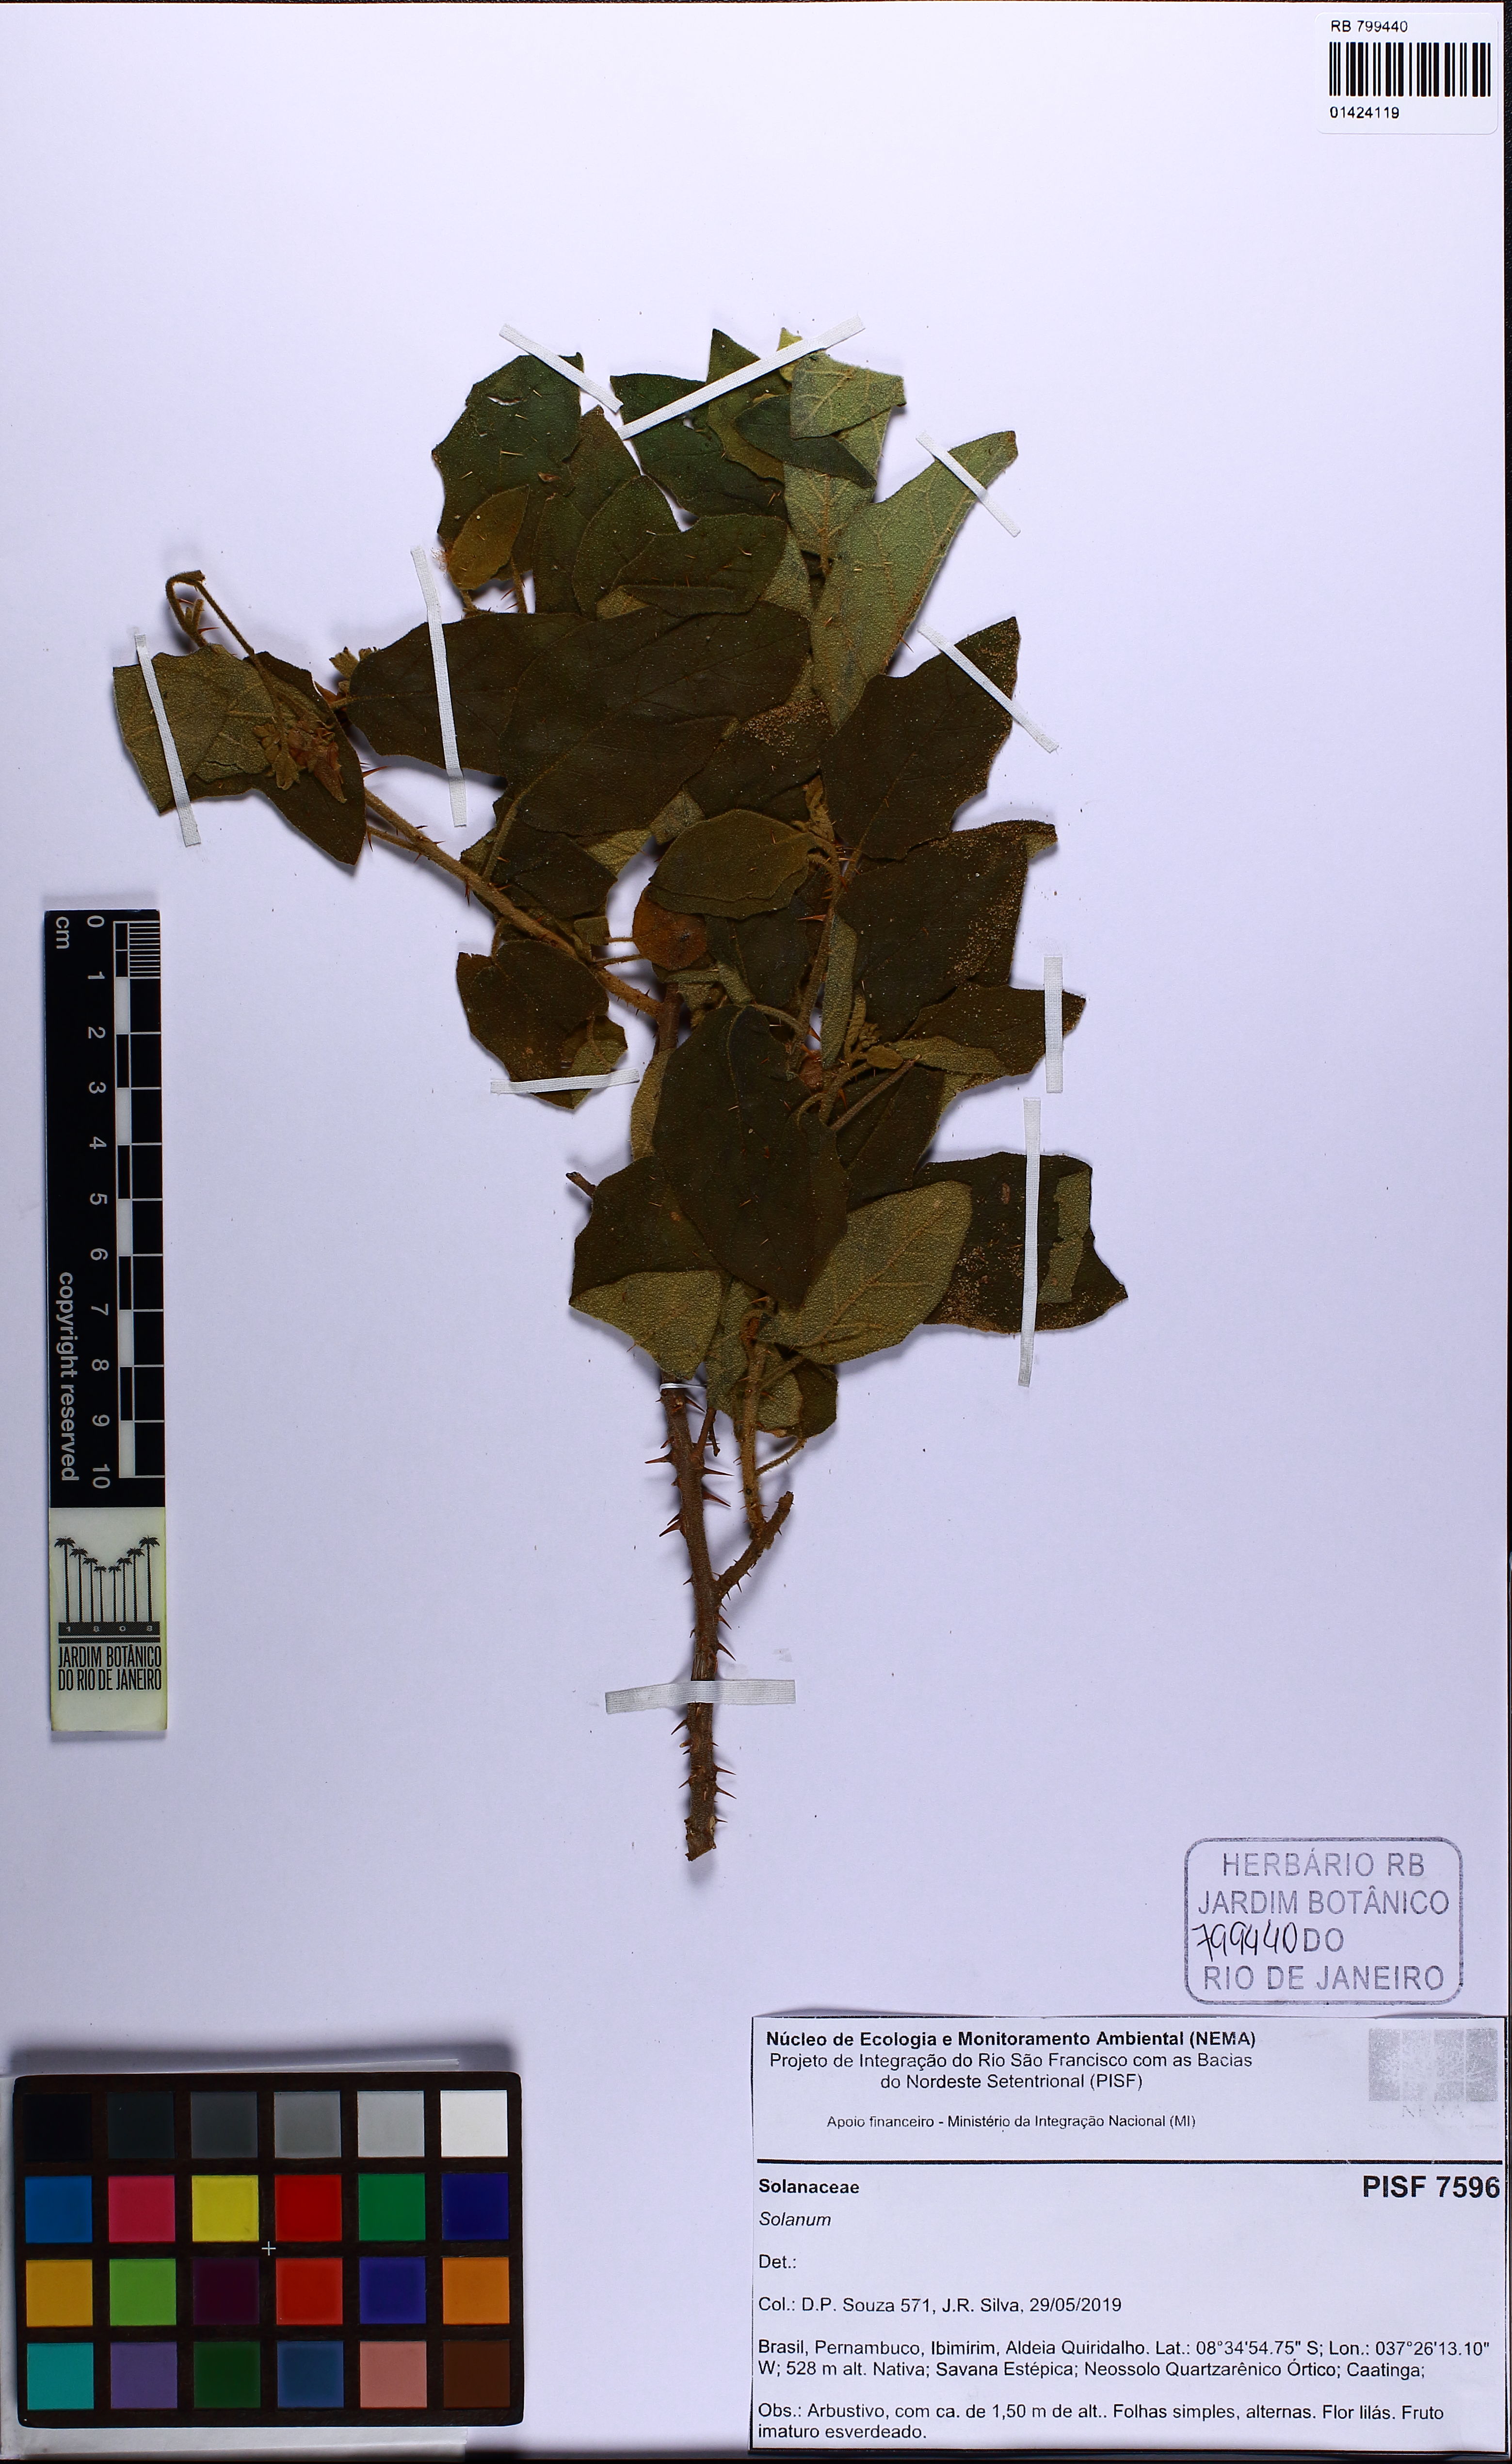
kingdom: Plantae
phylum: Tracheophyta
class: Magnoliopsida
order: Solanales
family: Solanaceae
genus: Solanum
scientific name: Solanum
